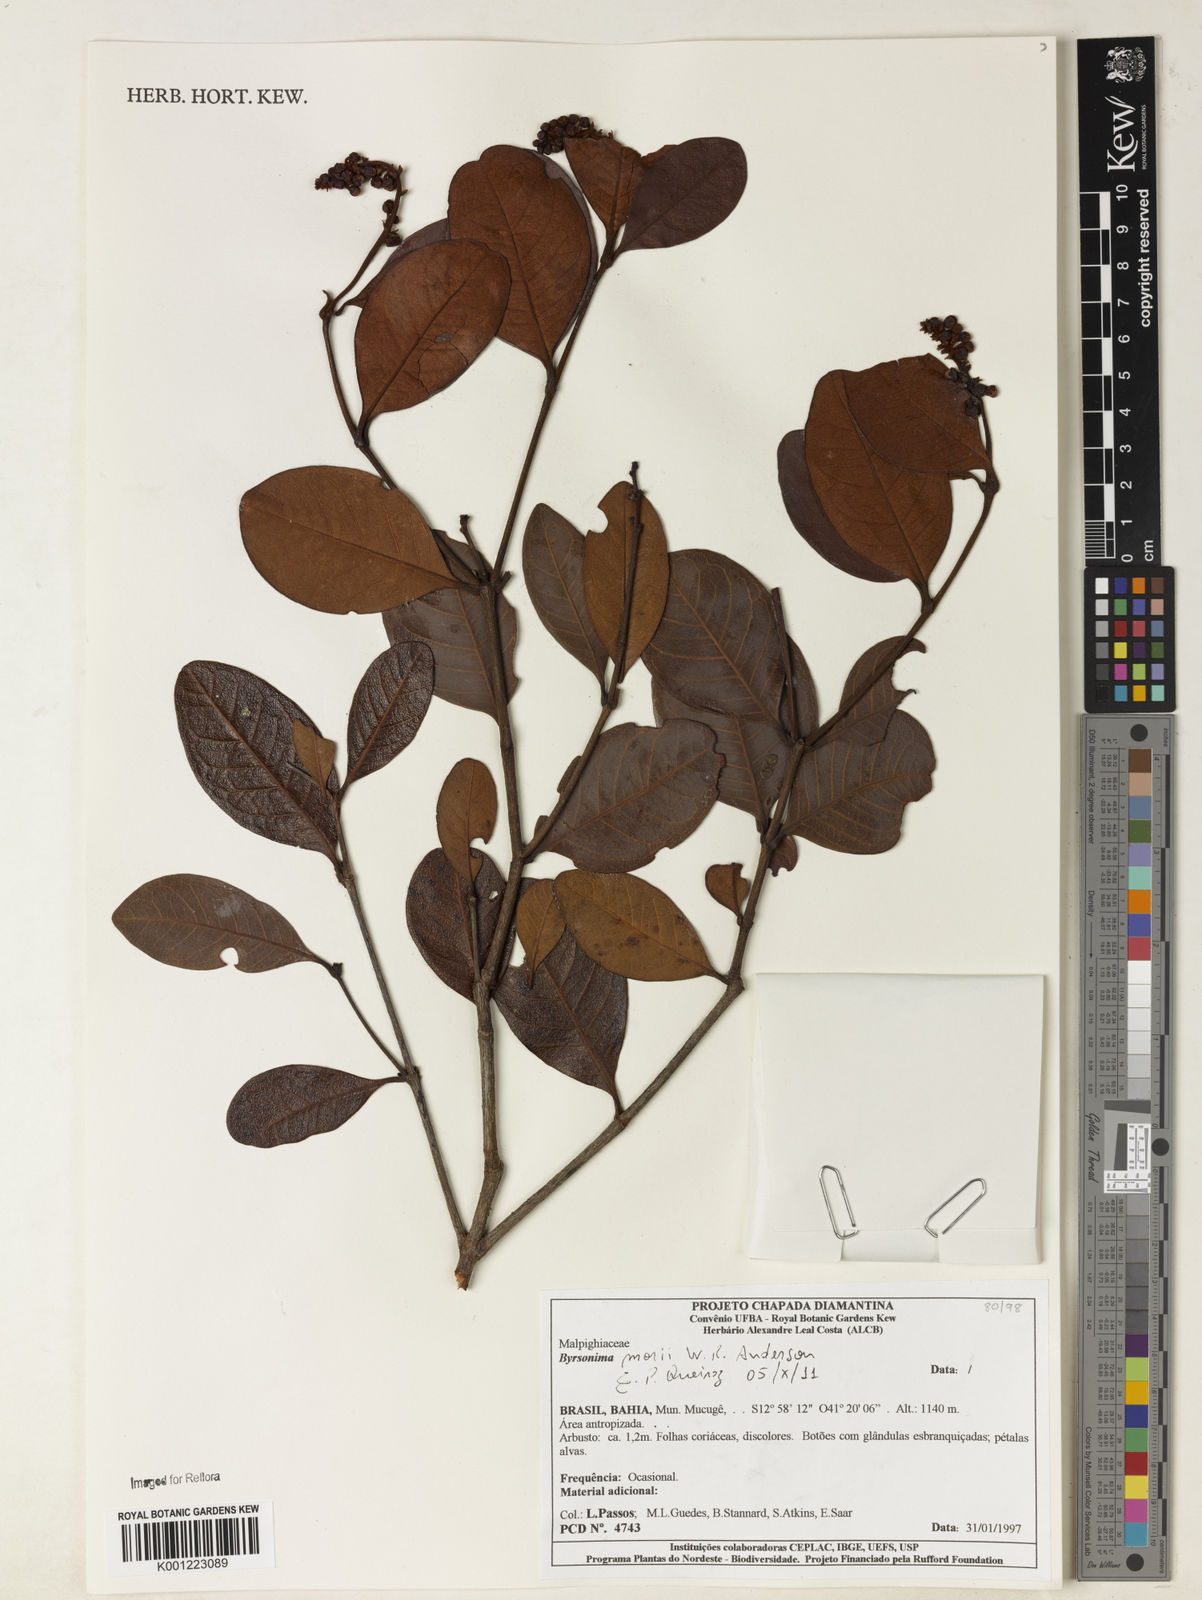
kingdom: Plantae
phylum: Tracheophyta
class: Magnoliopsida
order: Malpighiales
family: Malpighiaceae
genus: Byrsonima
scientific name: Byrsonima morii
